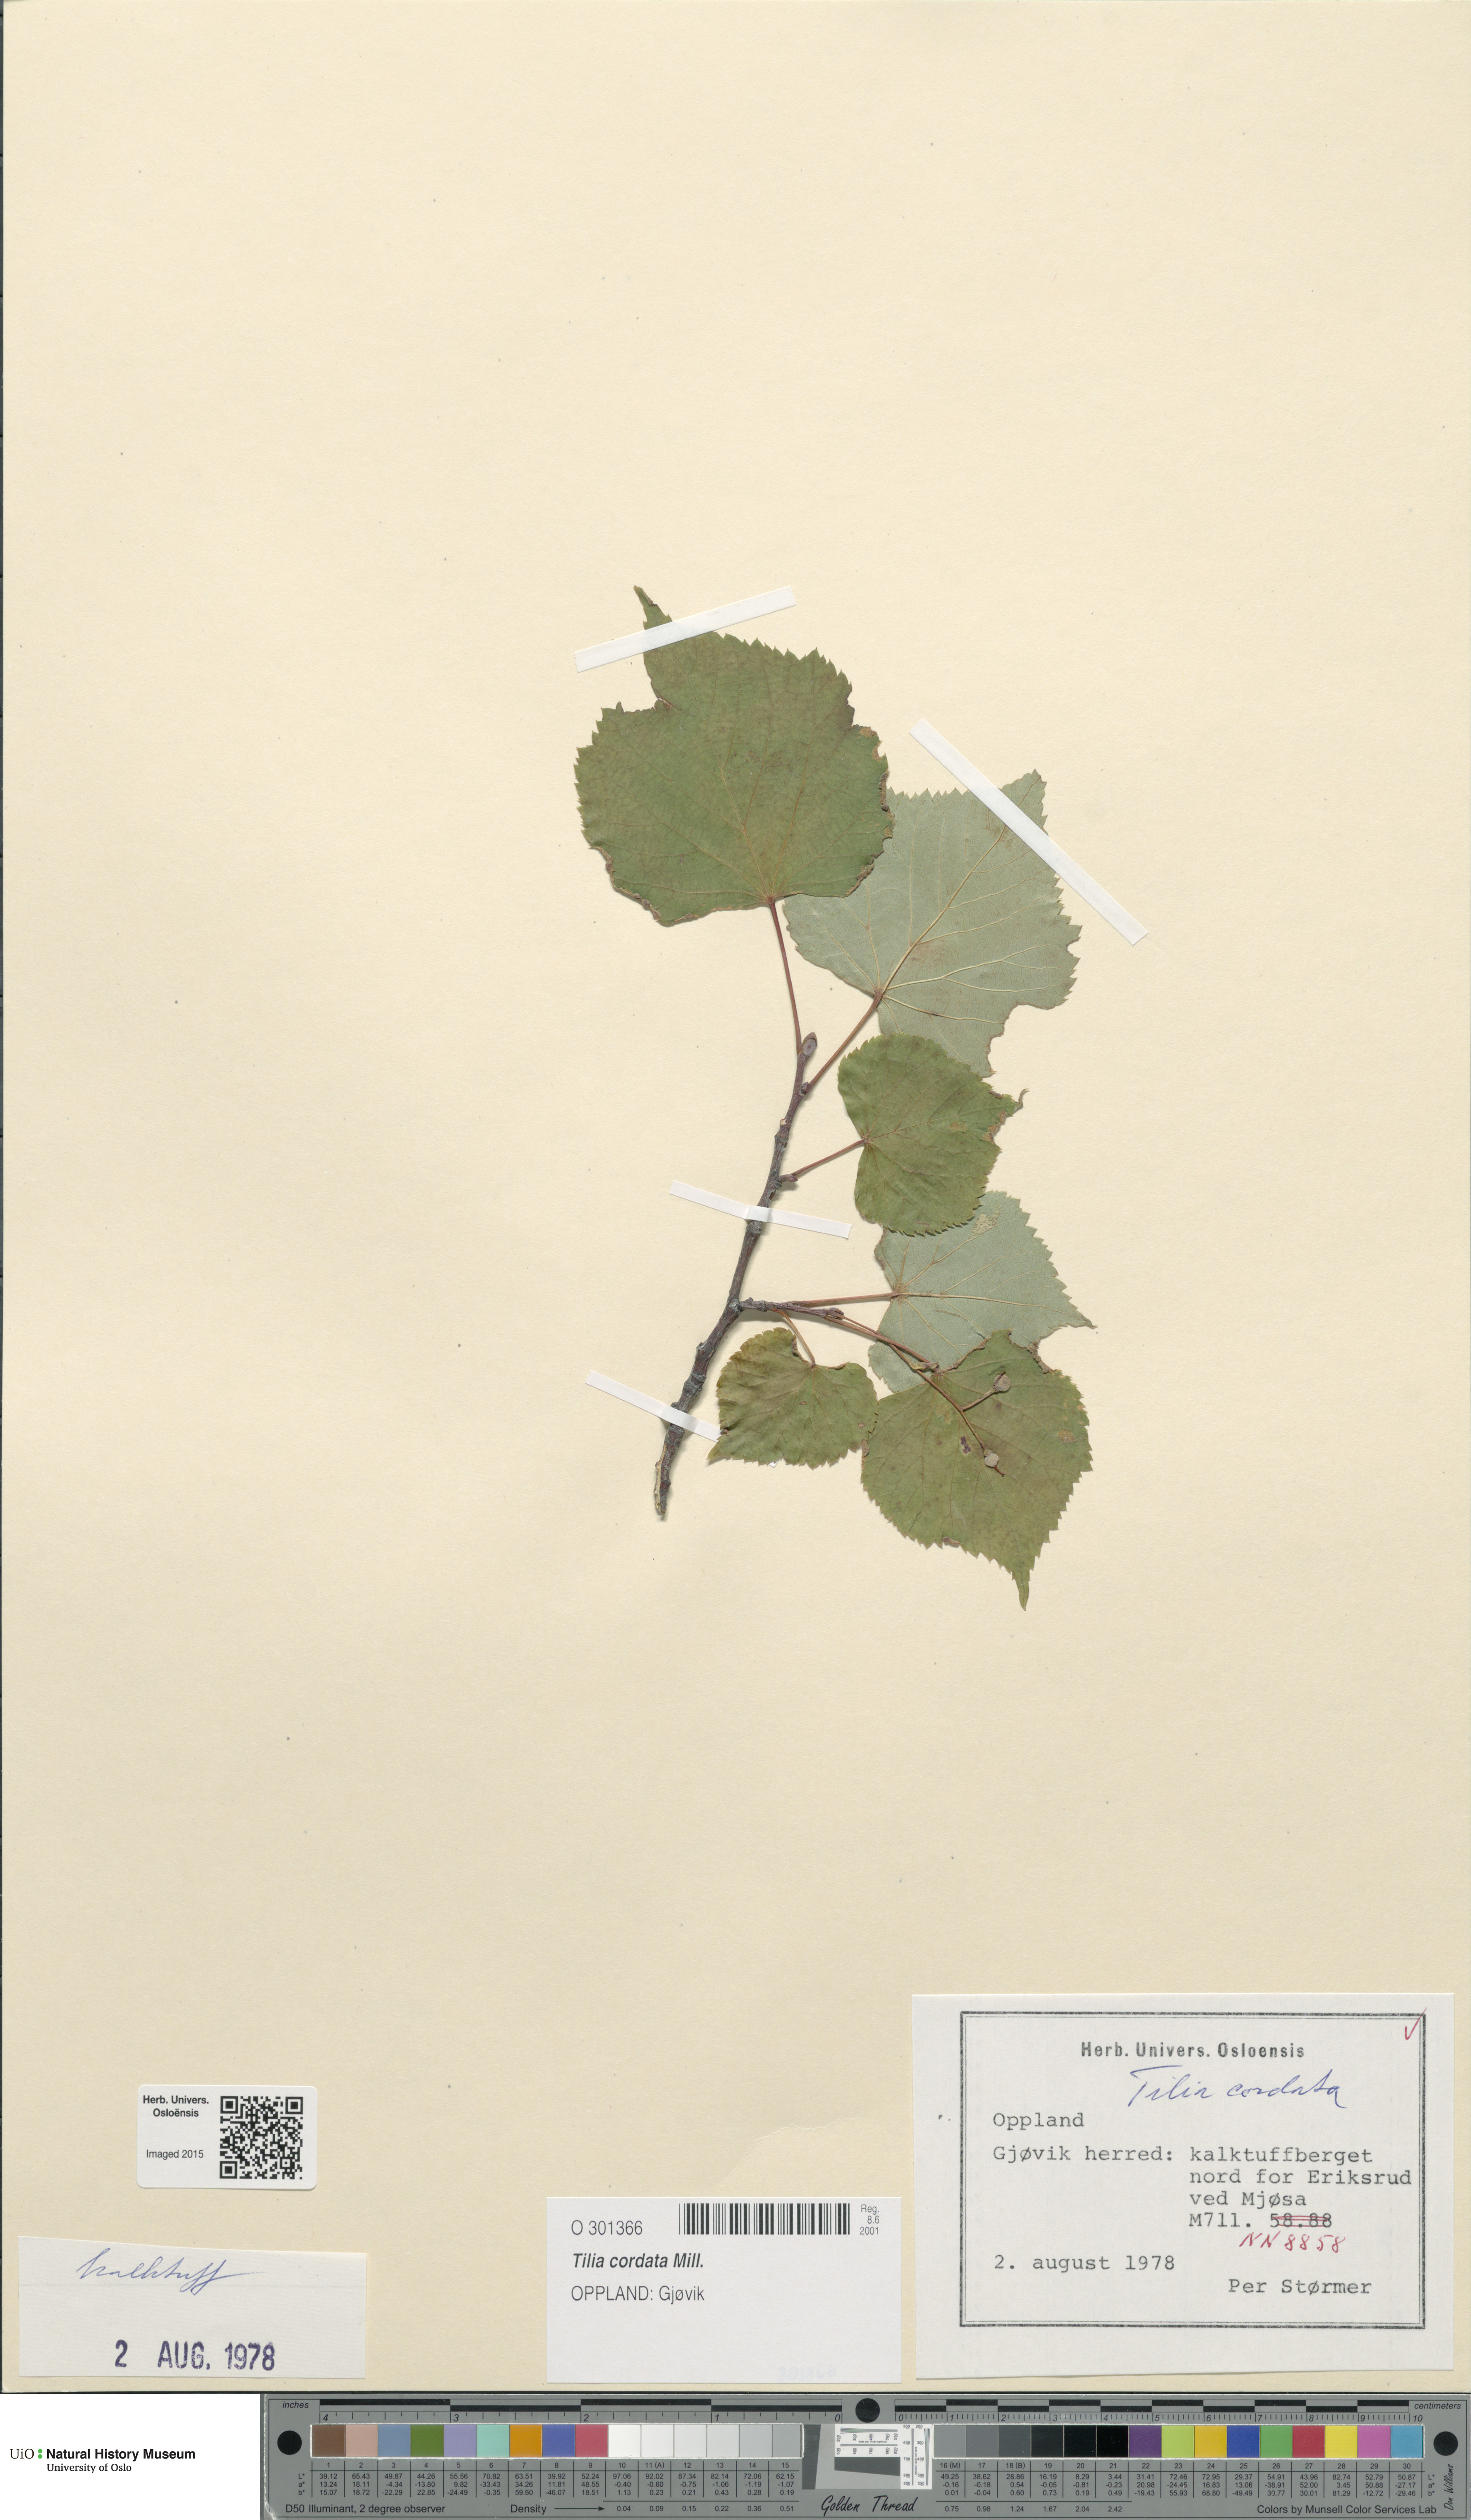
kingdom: Plantae
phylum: Tracheophyta
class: Magnoliopsida
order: Malvales
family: Malvaceae
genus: Tilia
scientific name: Tilia cordata
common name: Small-leaved lime
